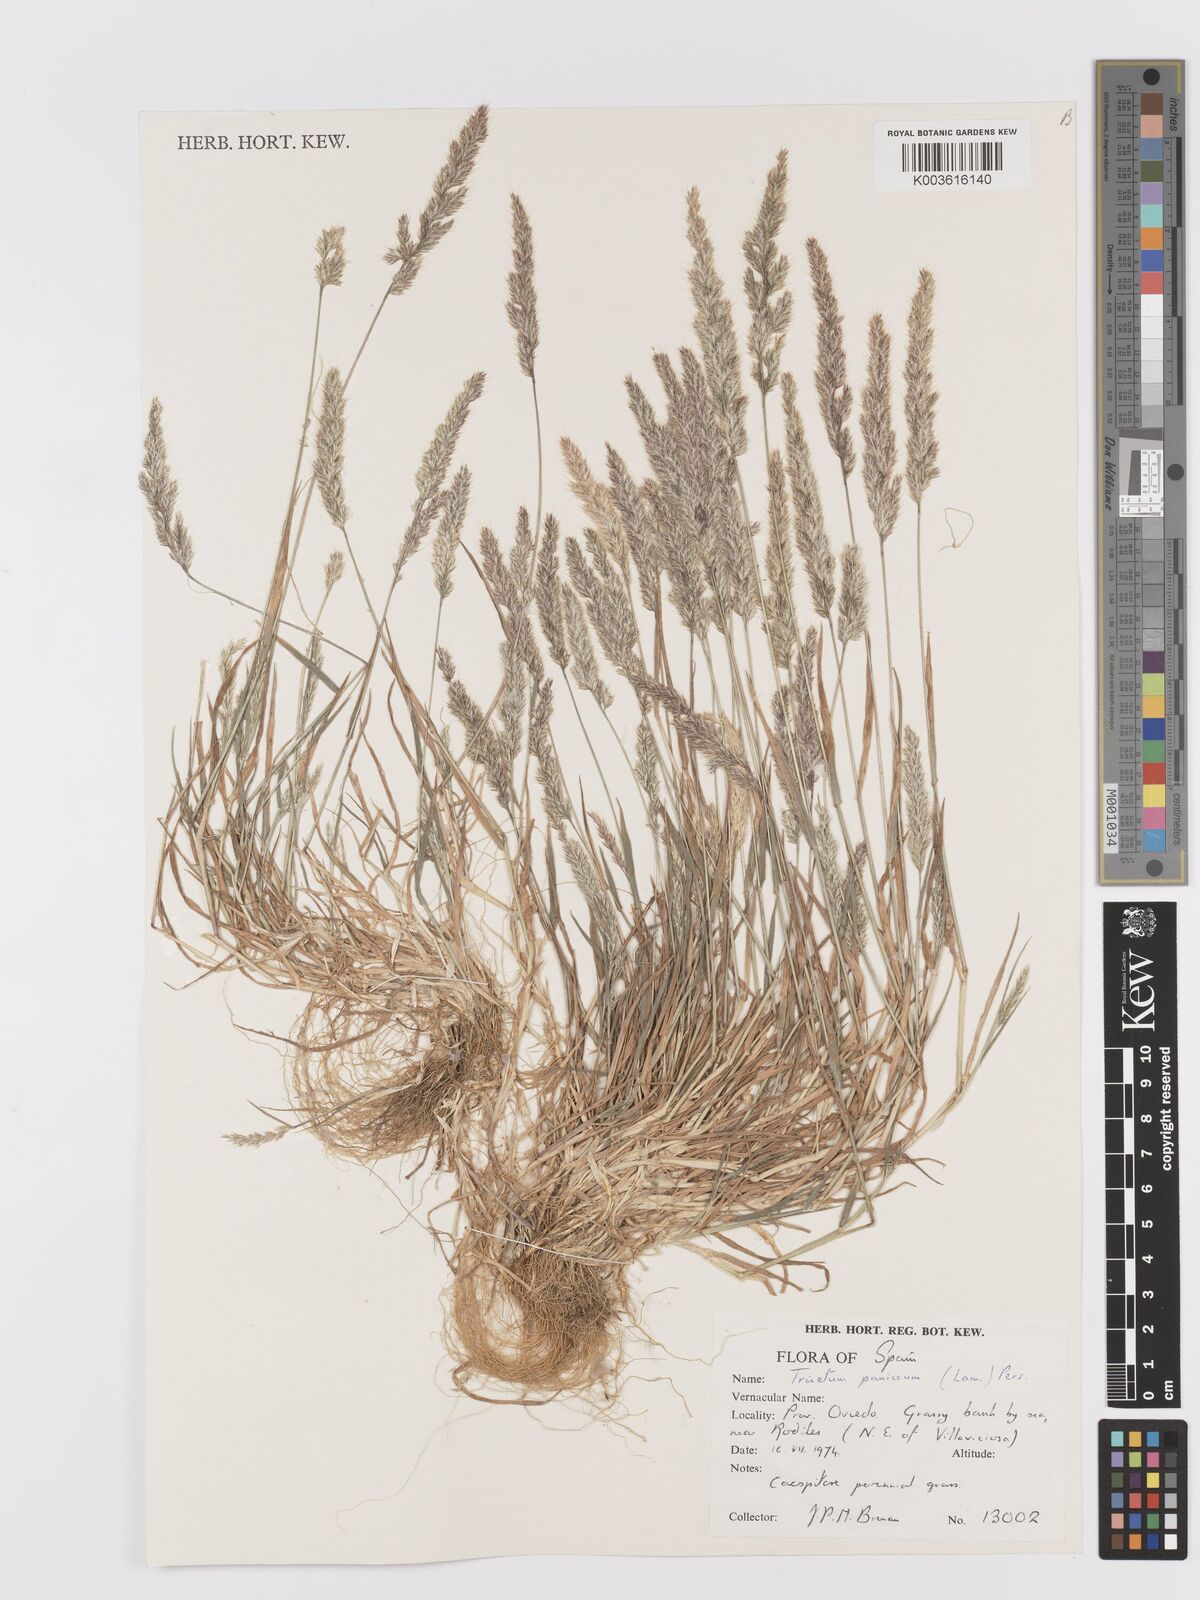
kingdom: Plantae
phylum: Tracheophyta
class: Liliopsida
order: Poales
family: Poaceae
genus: Trisetaria
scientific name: Trisetaria panicea
